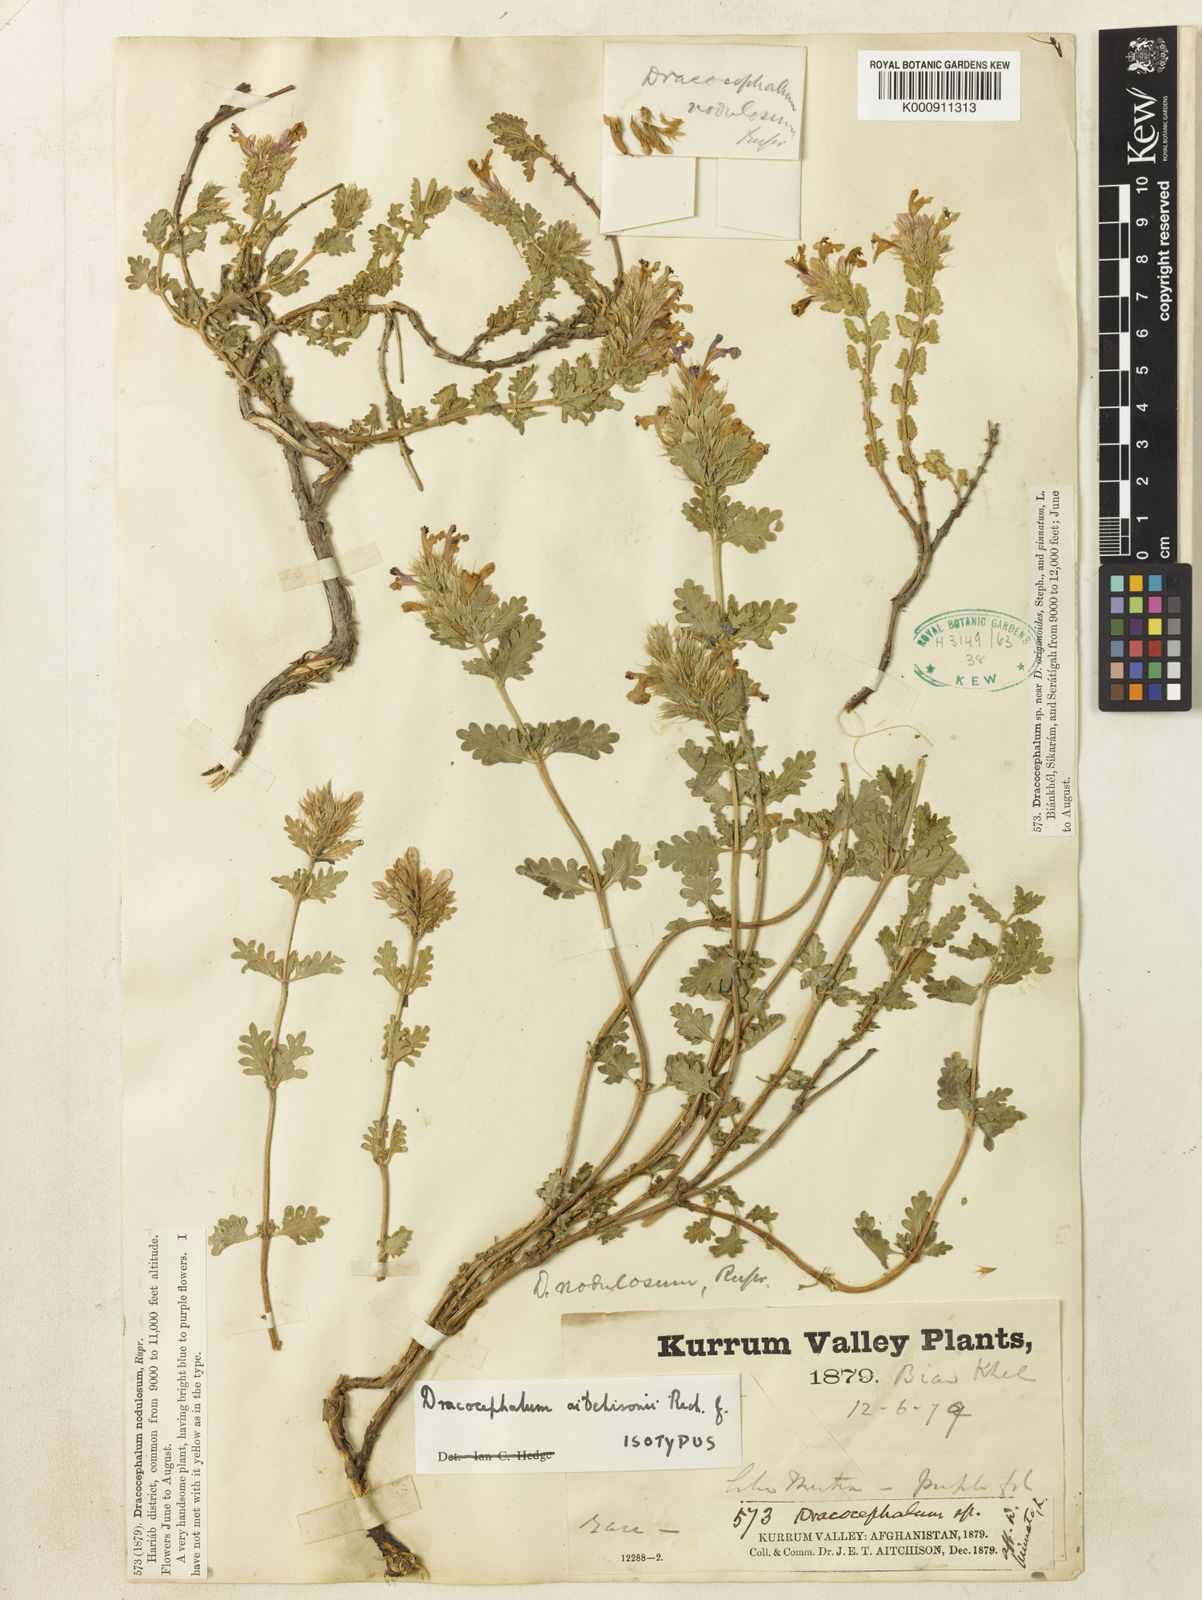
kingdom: Plantae
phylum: Tracheophyta
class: Magnoliopsida
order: Lamiales
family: Lamiaceae
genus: Dracocephalum
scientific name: Dracocephalum wallichii
